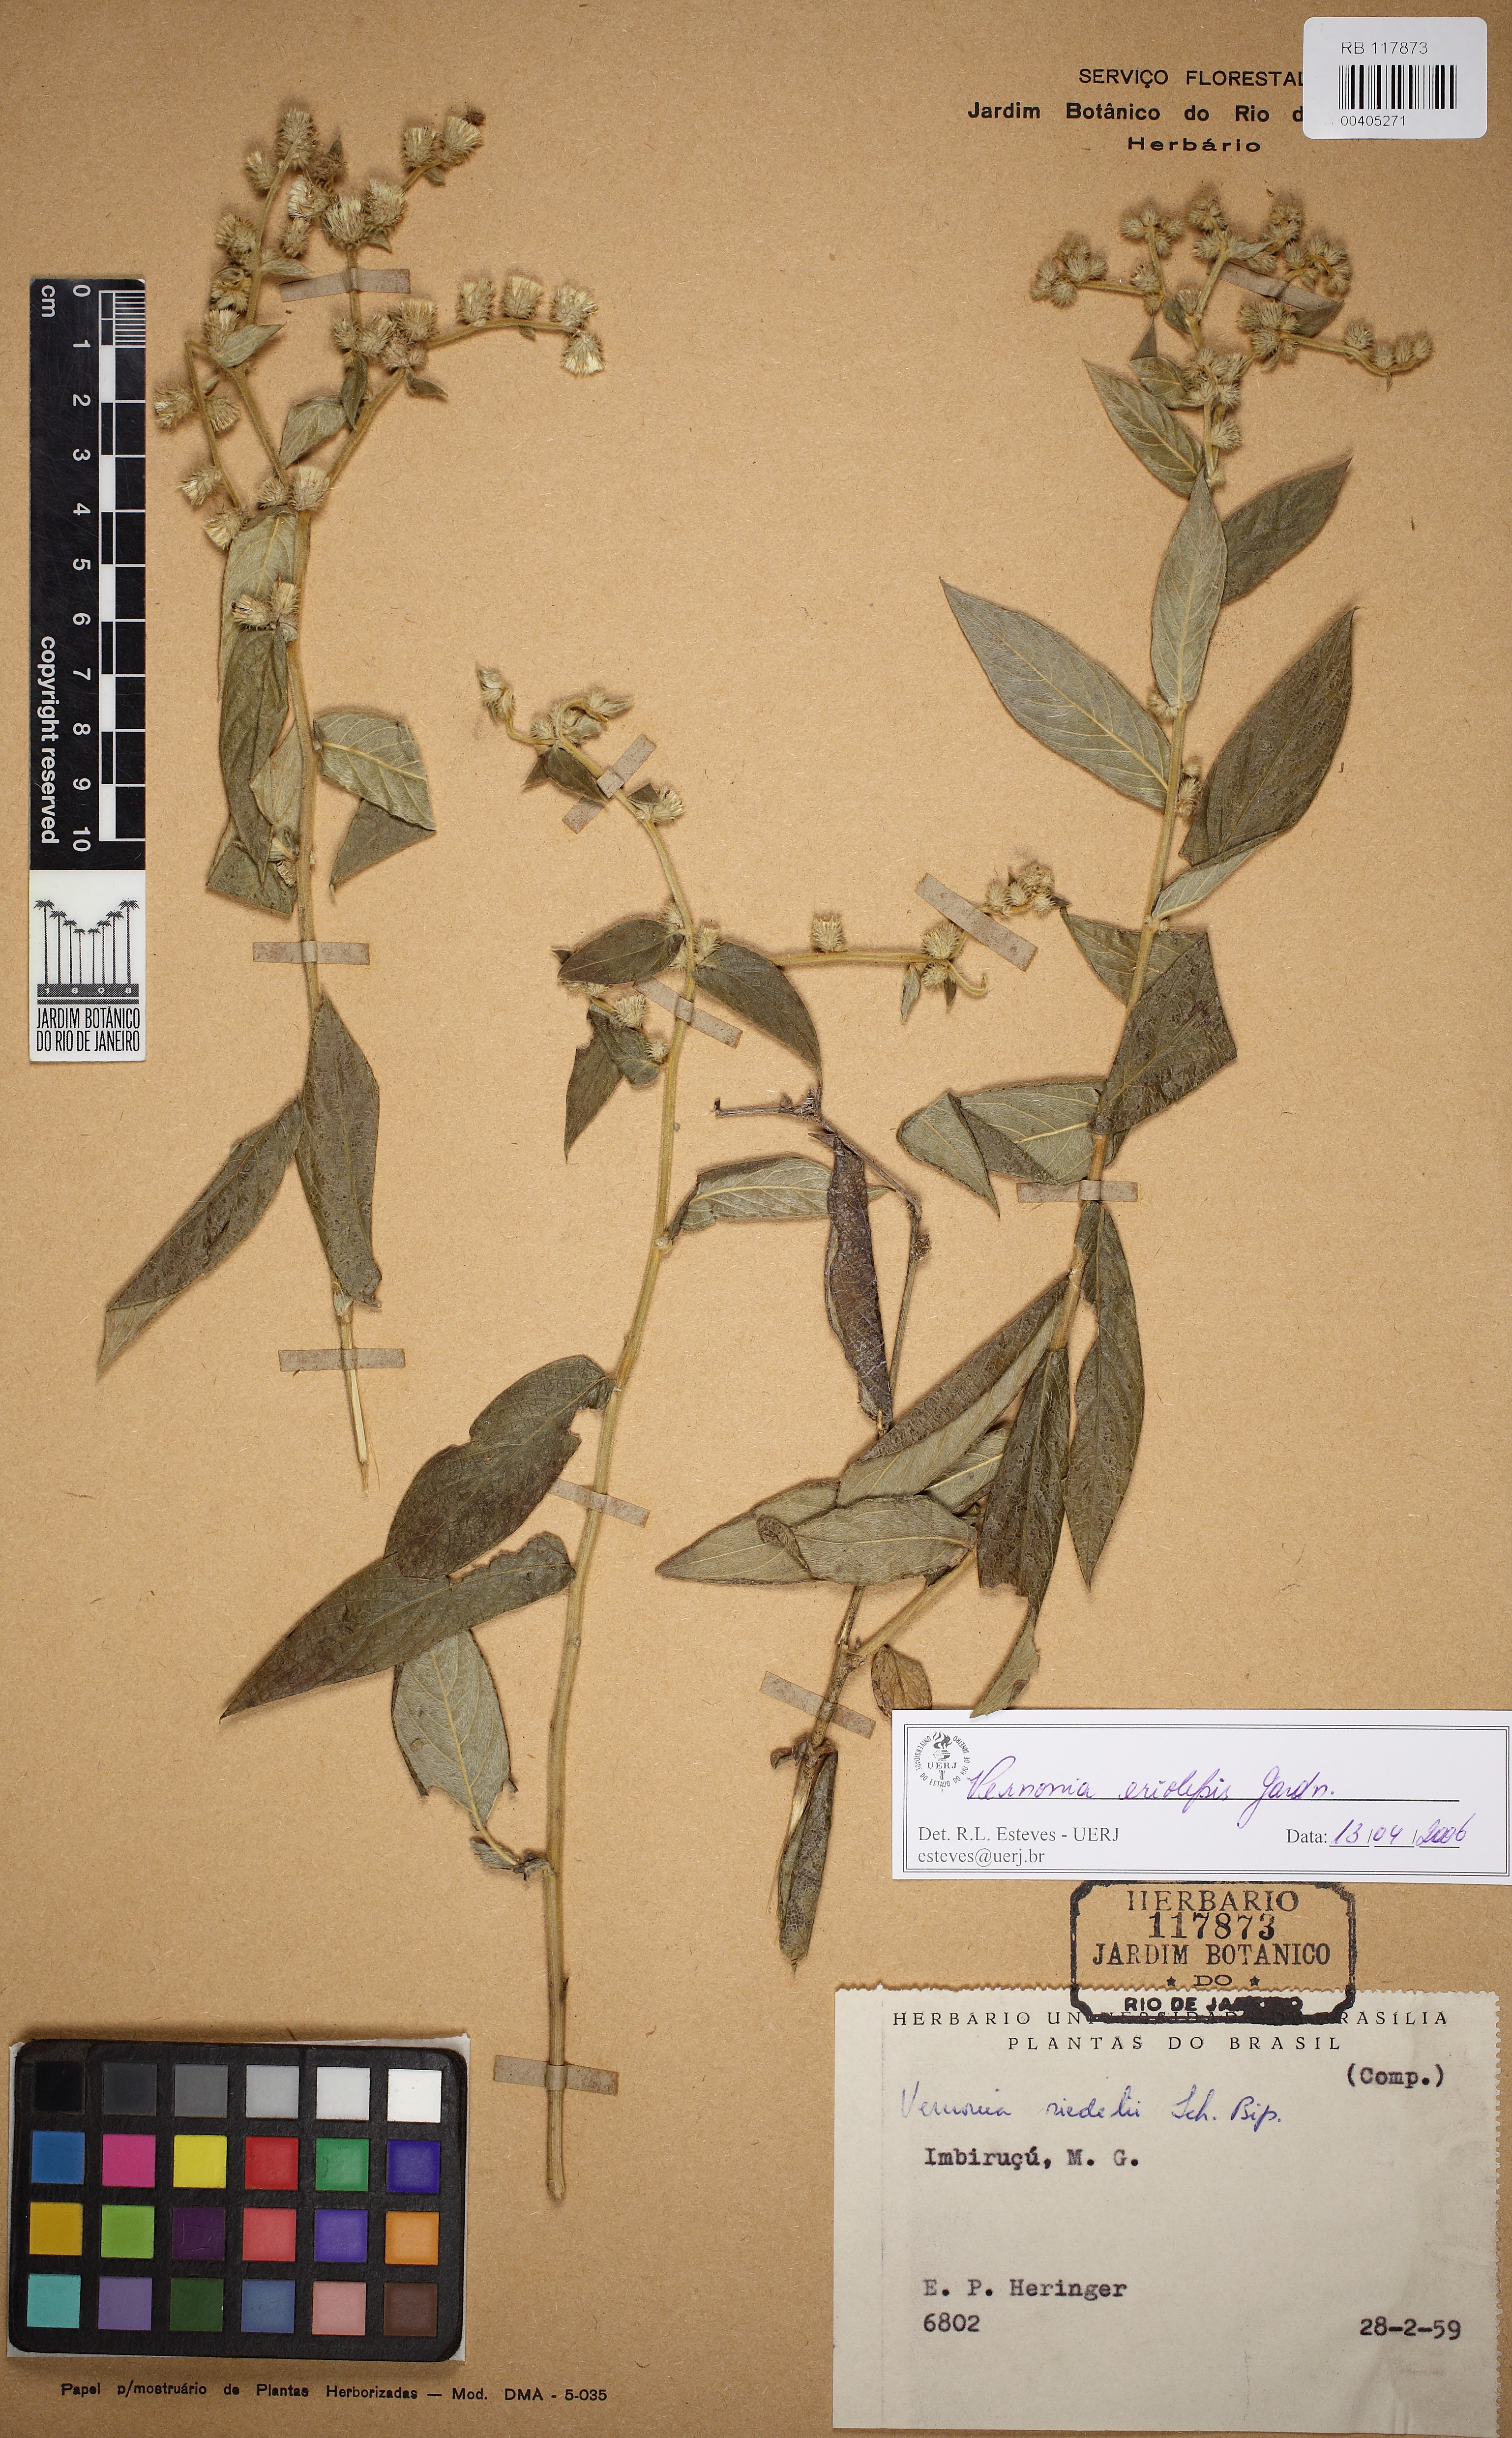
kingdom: Plantae
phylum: Tracheophyta
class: Magnoliopsida
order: Asterales
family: Asteraceae
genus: Lepidaploa
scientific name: Lepidaploa eriolepis
